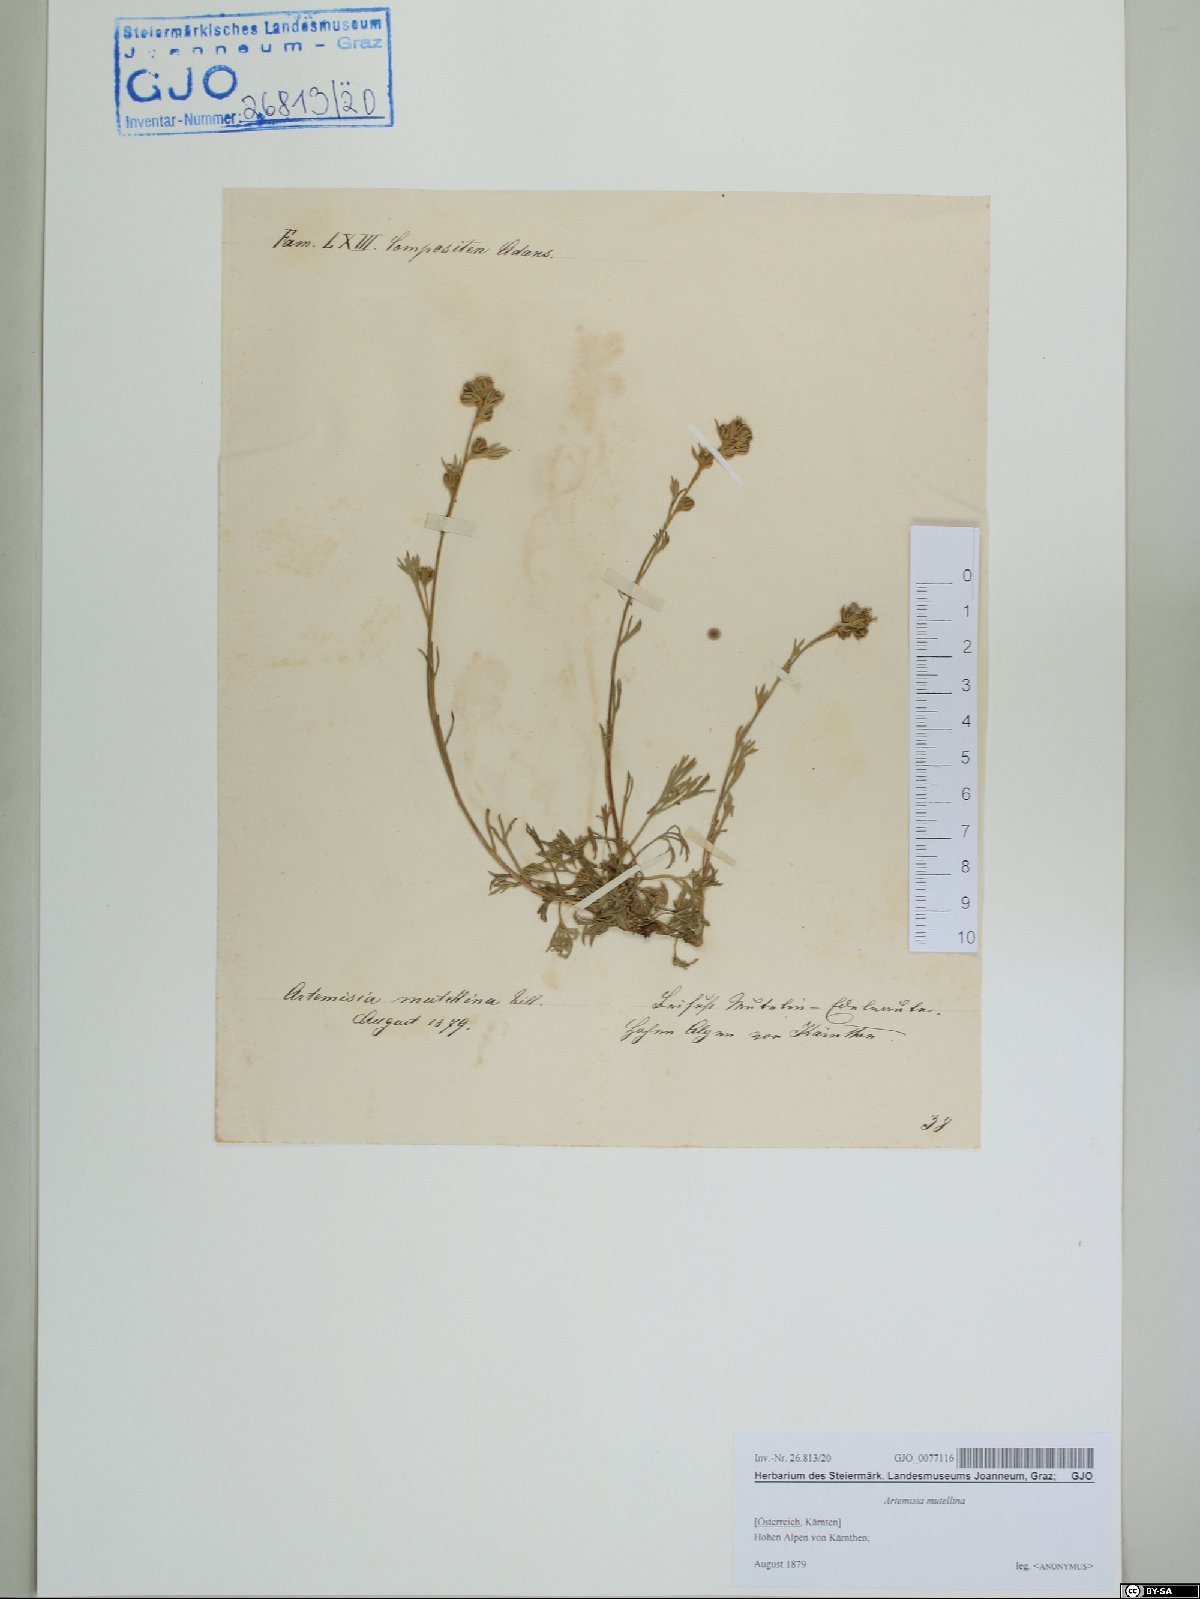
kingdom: Plantae
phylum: Tracheophyta
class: Magnoliopsida
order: Asterales
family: Asteraceae
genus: Artemisia
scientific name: Artemisia mutellina
